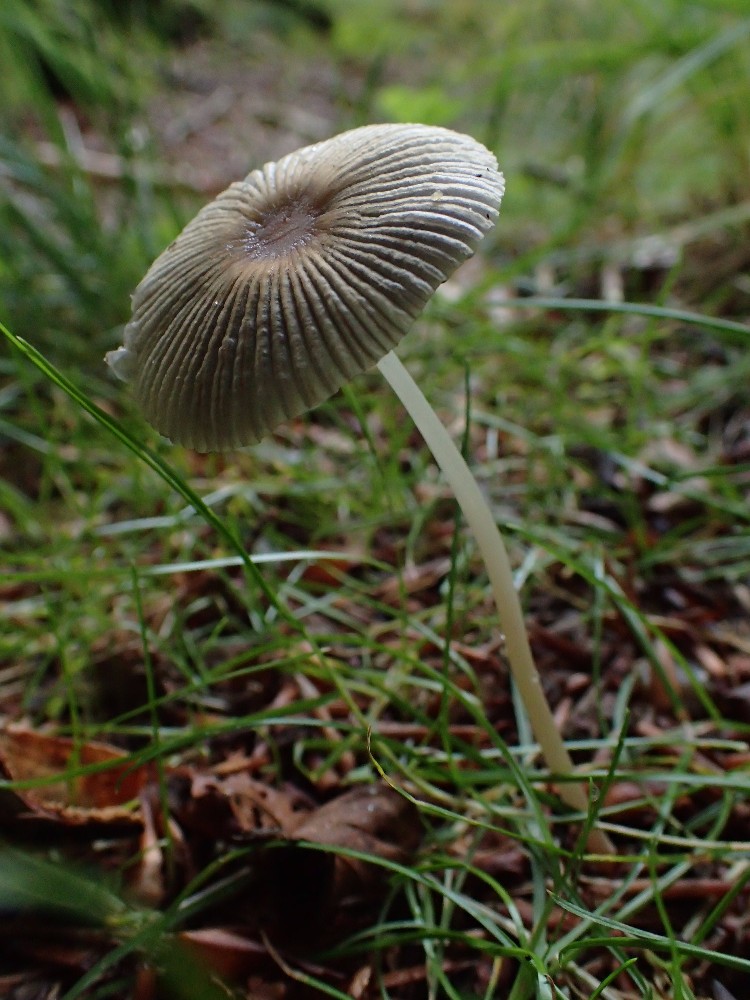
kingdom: Fungi
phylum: Basidiomycota
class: Agaricomycetes
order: Agaricales
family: Psathyrellaceae
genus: Parasola
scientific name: Parasola
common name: hjulhat
